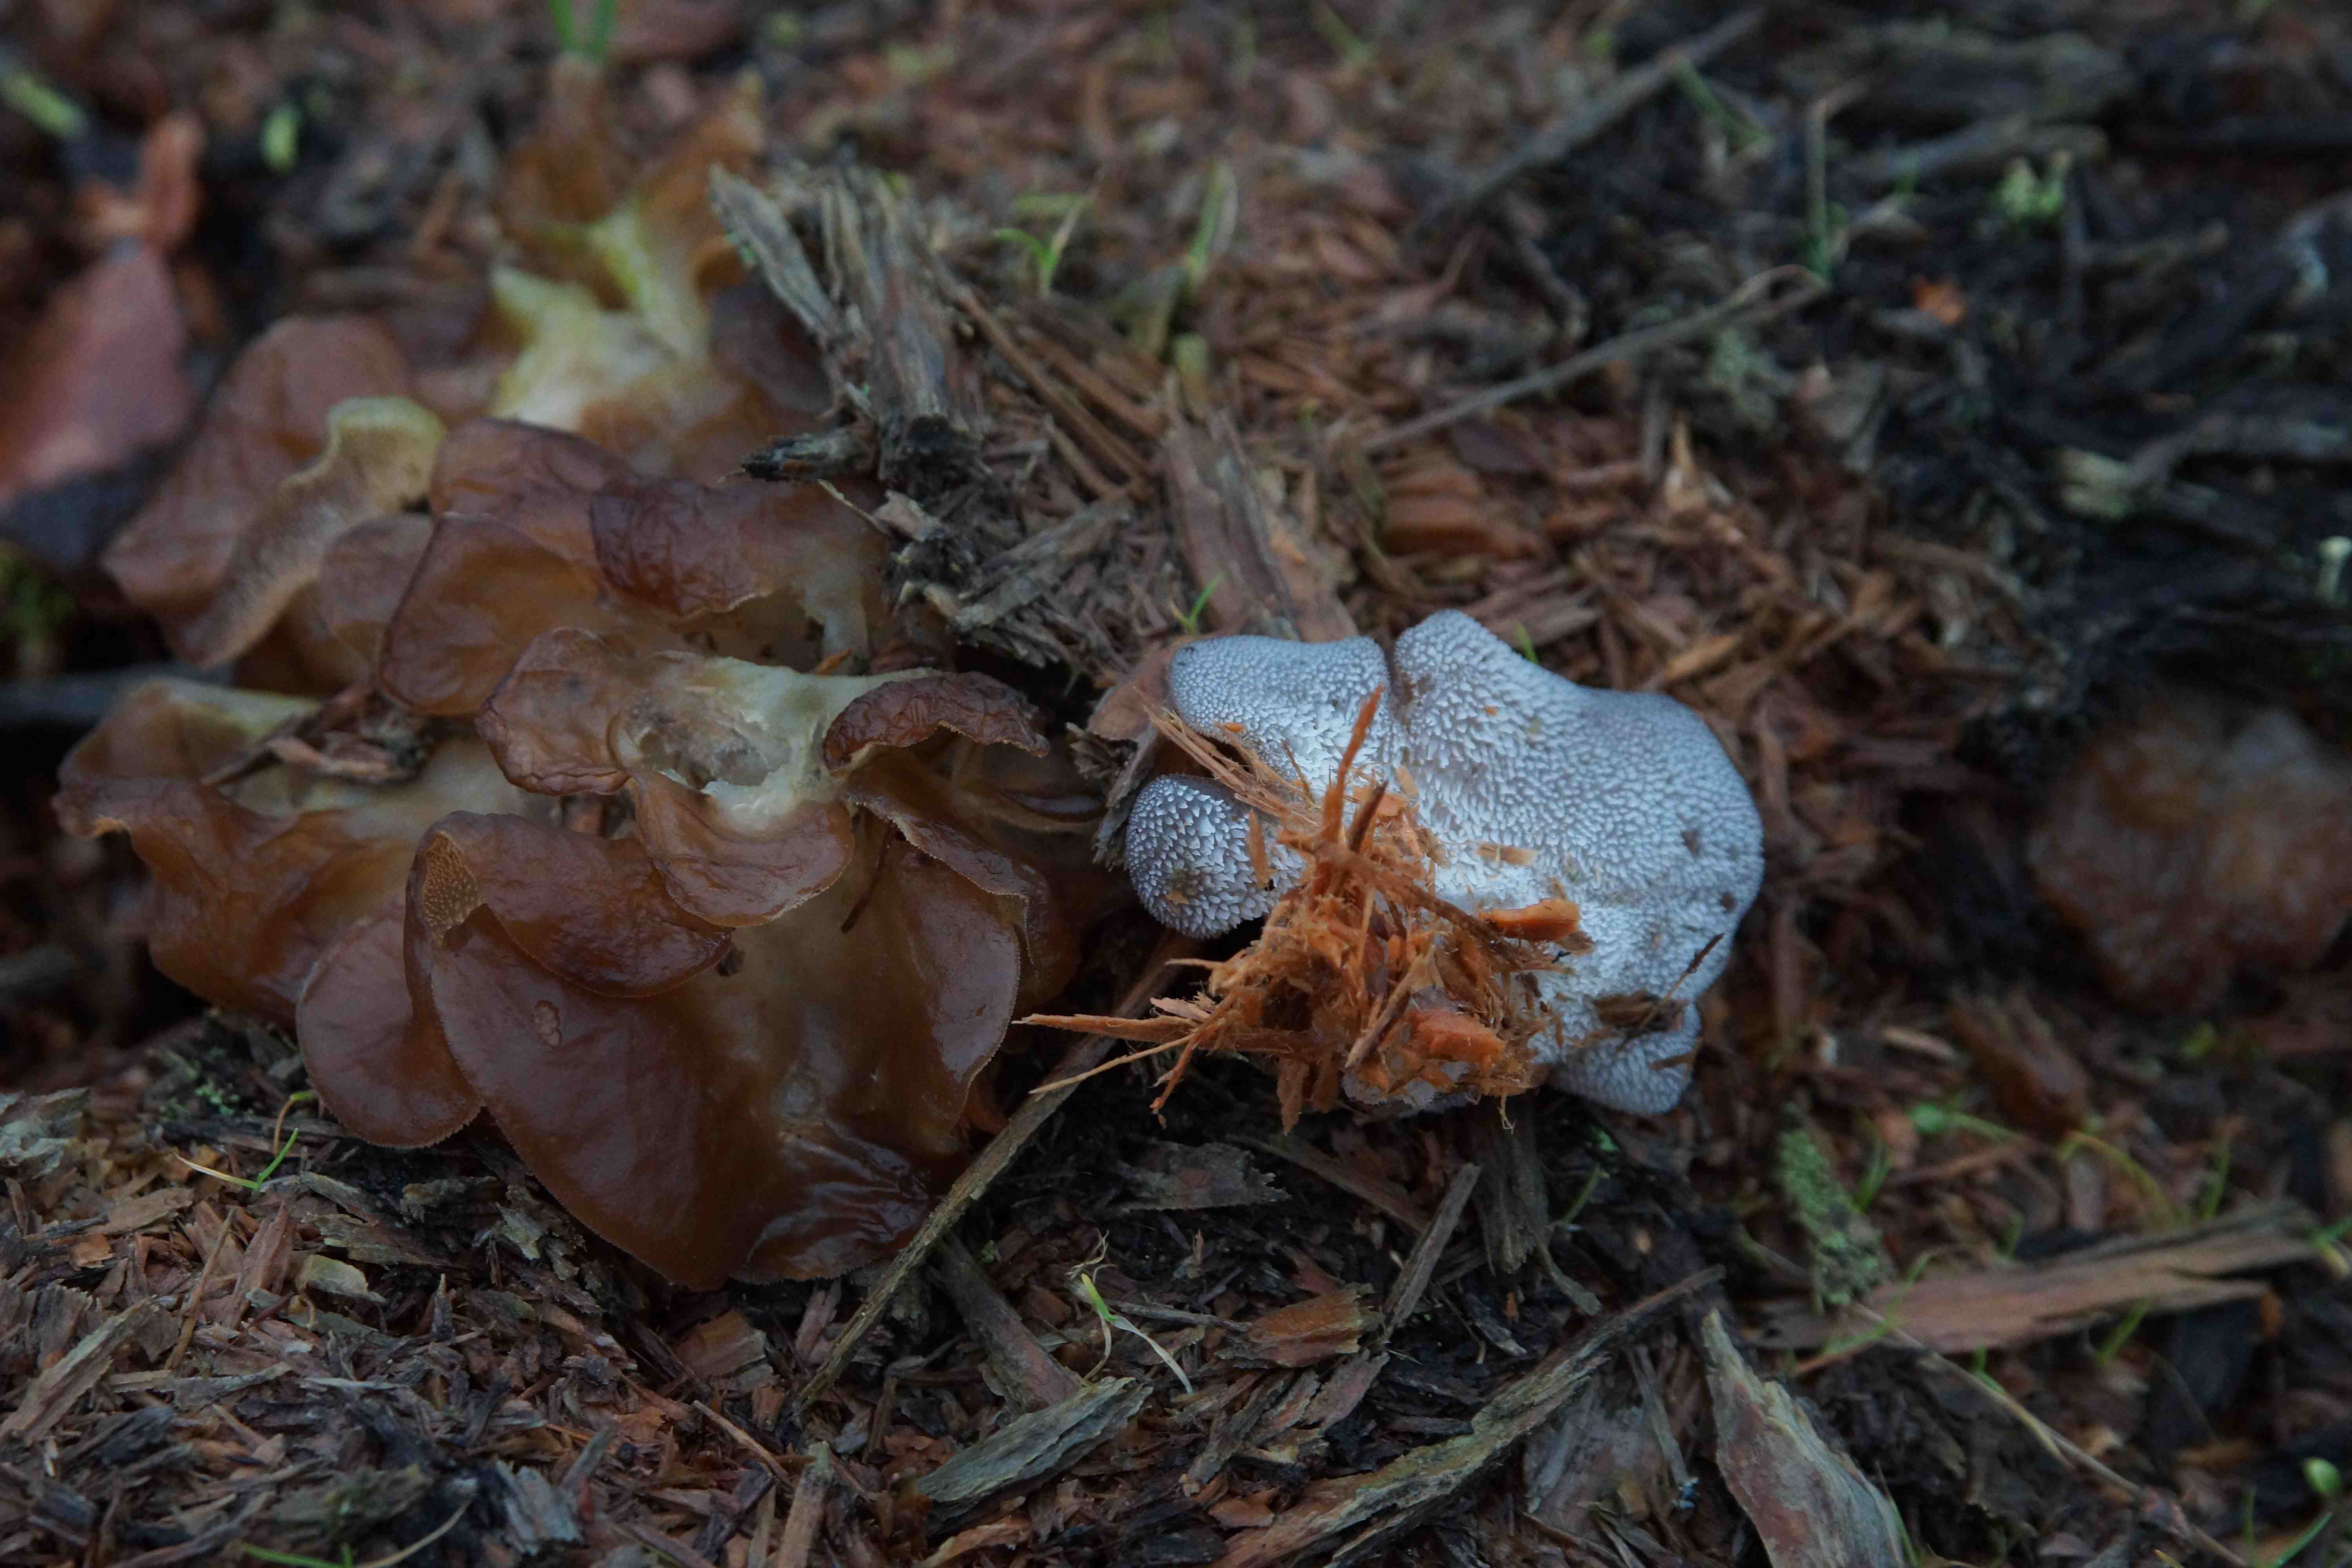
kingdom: Fungi
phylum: Basidiomycota
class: Agaricomycetes
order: Auriculariales
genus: Pseudohydnum
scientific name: Pseudohydnum gelatinosum
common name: bævretand
